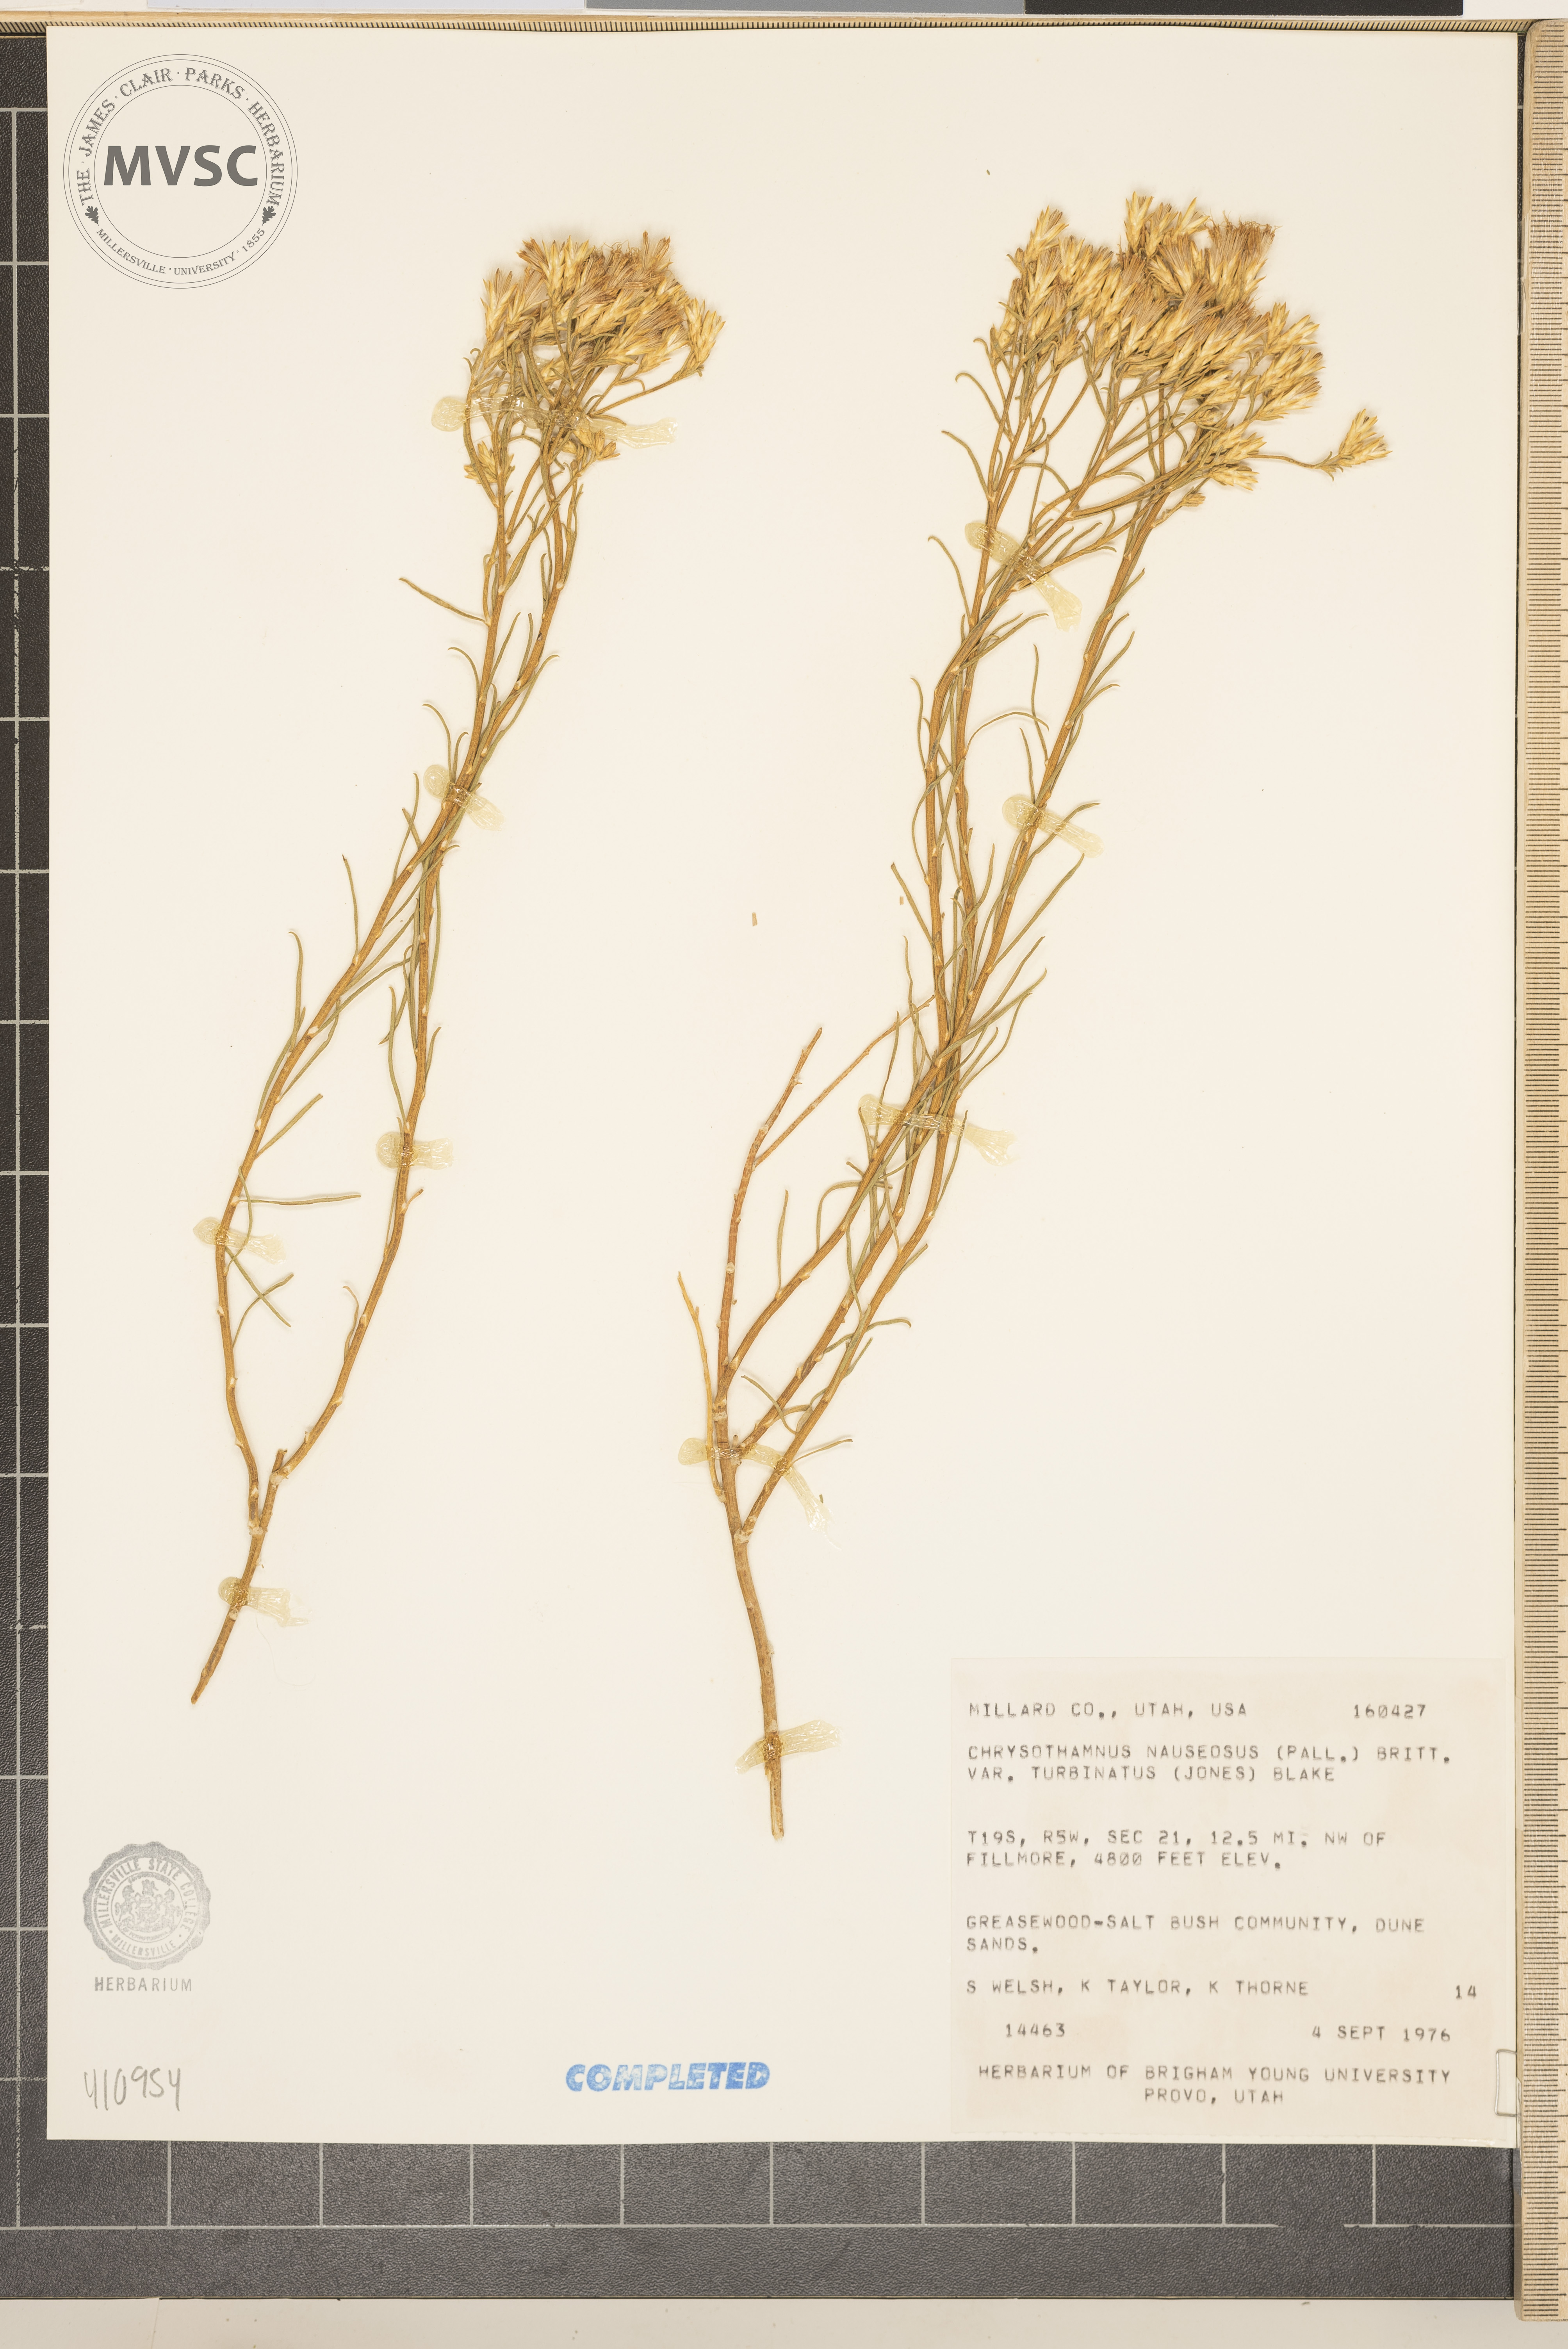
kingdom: Plantae
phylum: Tracheophyta
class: Magnoliopsida
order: Asterales
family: Asteraceae
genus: Ericameria
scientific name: Ericameria nauseosa
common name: Rubber rabbitbrush
